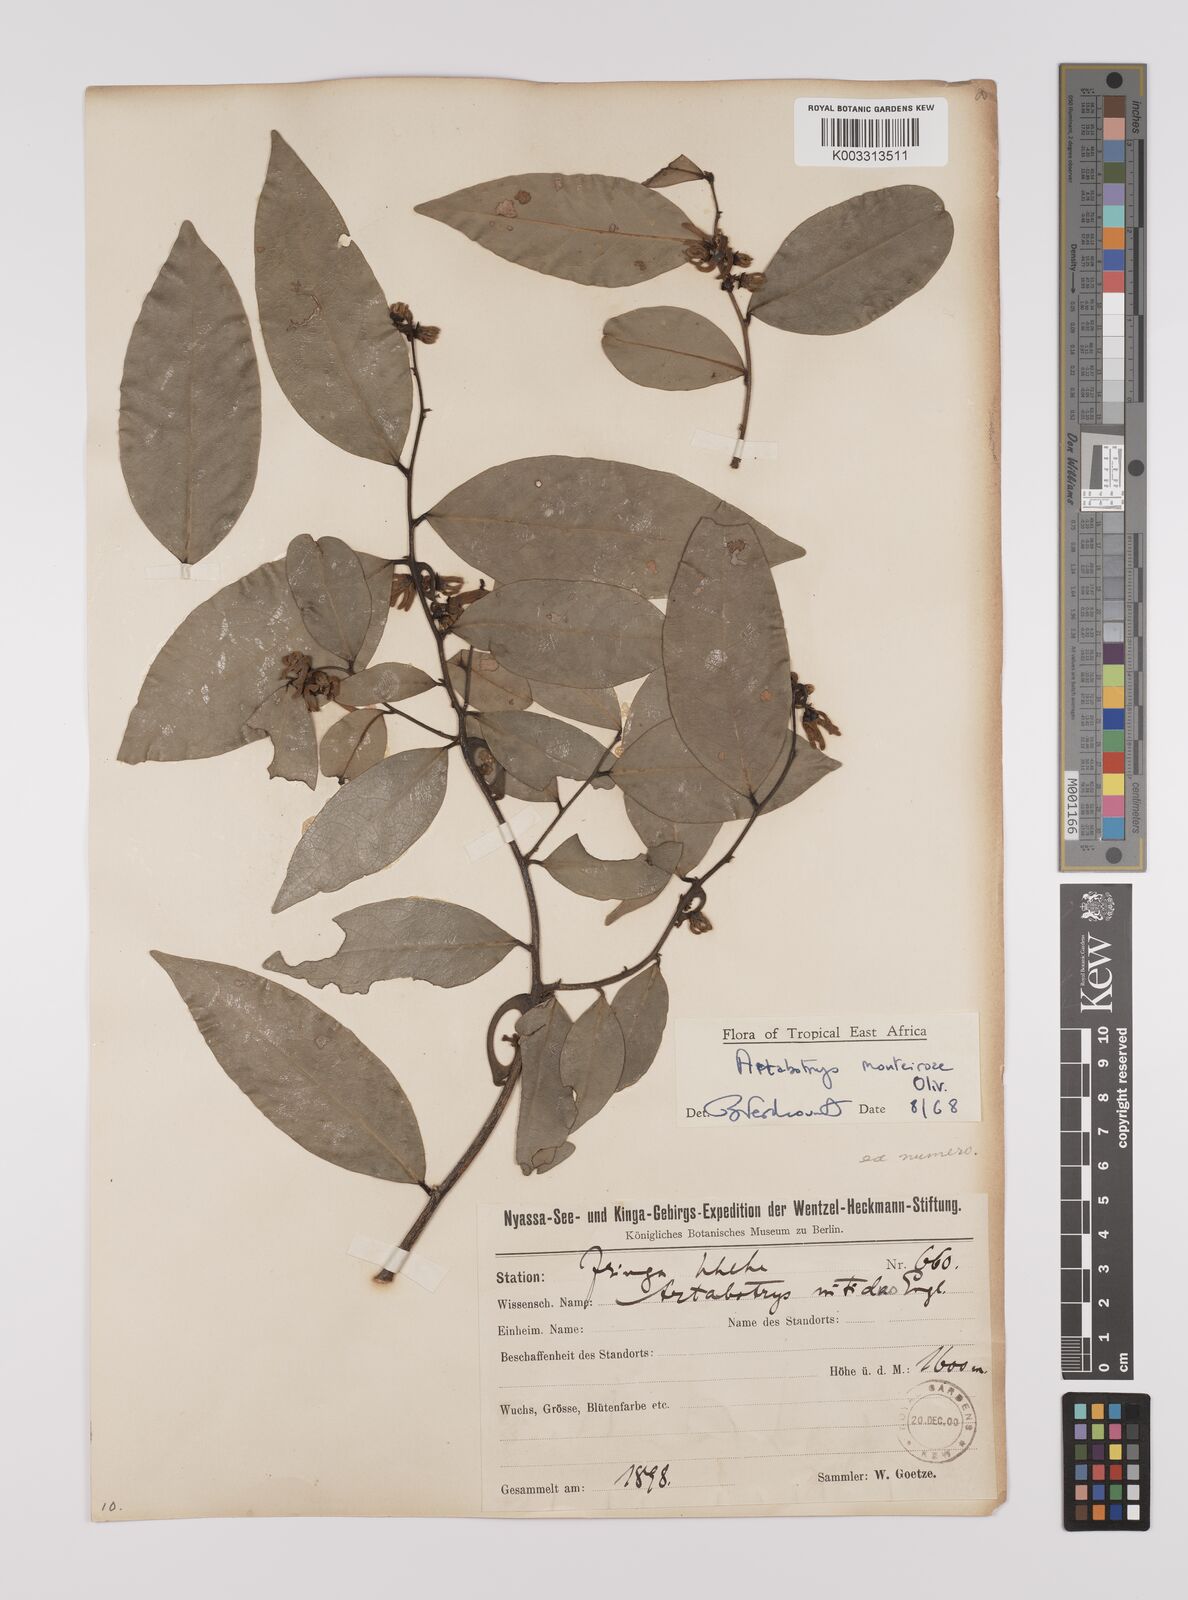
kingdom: Plantae
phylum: Tracheophyta
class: Magnoliopsida
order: Magnoliales
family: Annonaceae
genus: Artabotrys
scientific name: Artabotrys monteiroae
